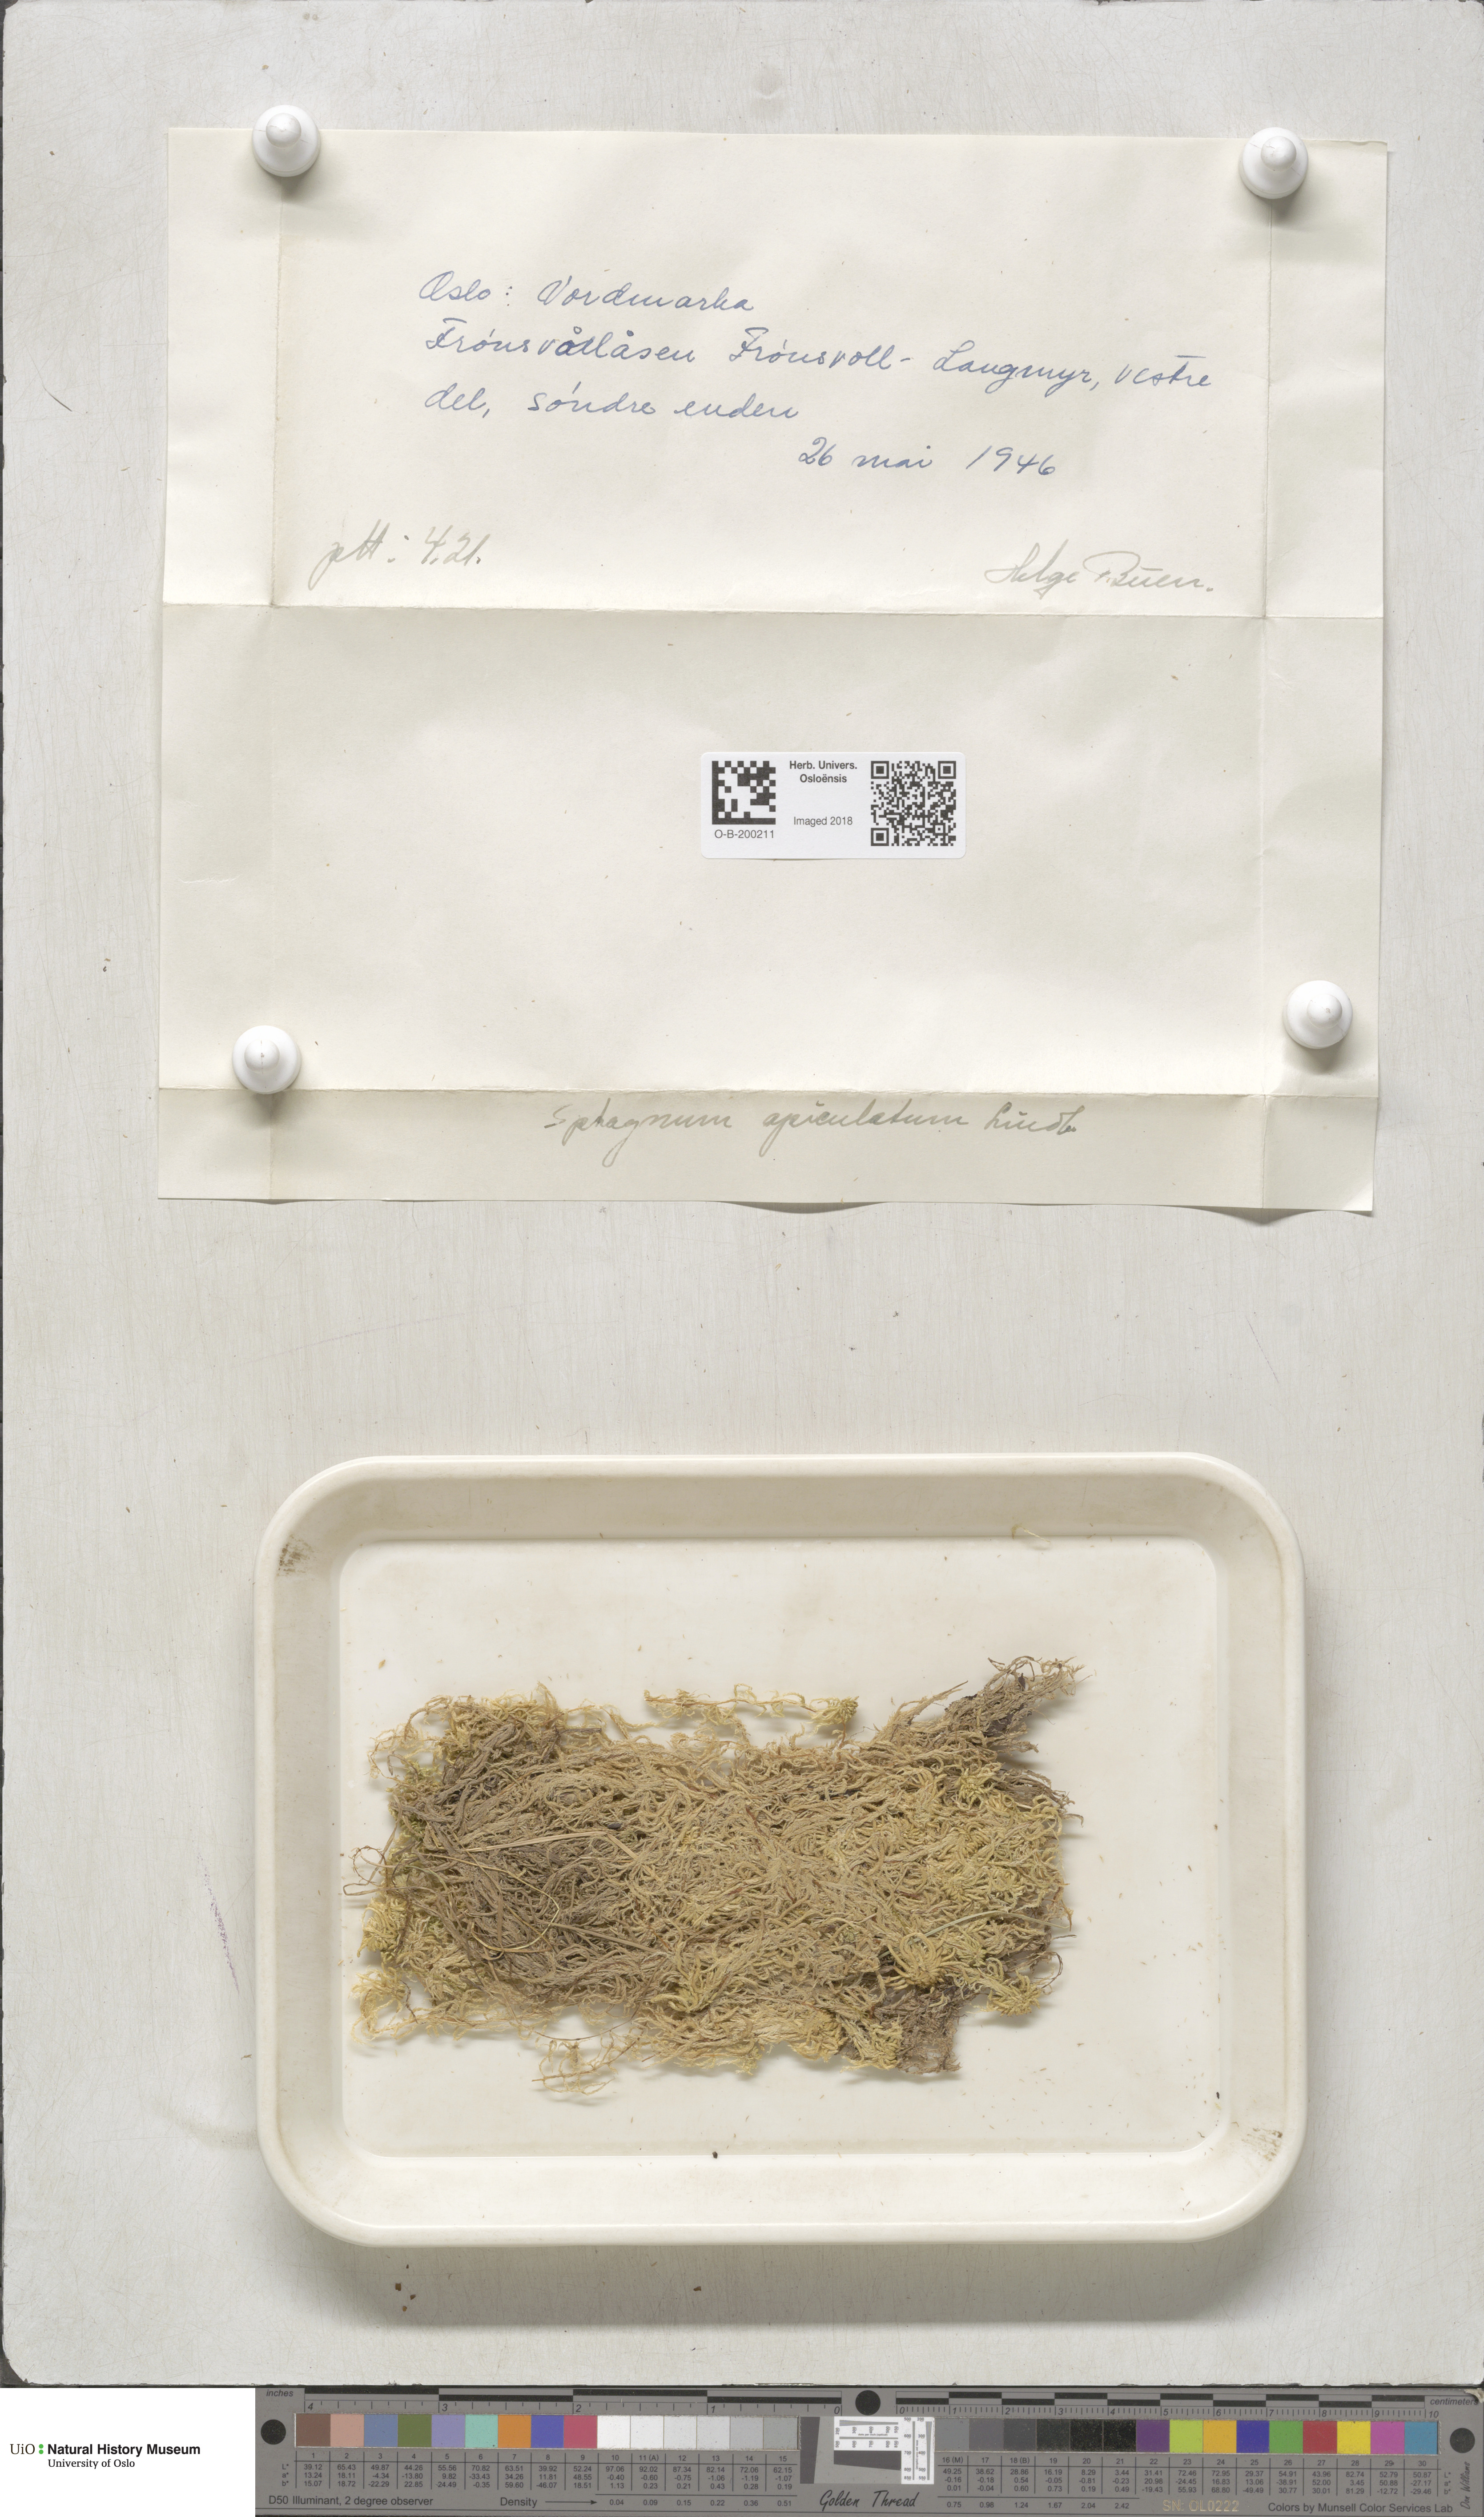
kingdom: Plantae
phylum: Bryophyta
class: Sphagnopsida
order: Sphagnales
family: Sphagnaceae
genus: Sphagnum
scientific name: Sphagnum fallax
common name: Flat-top peat moss
